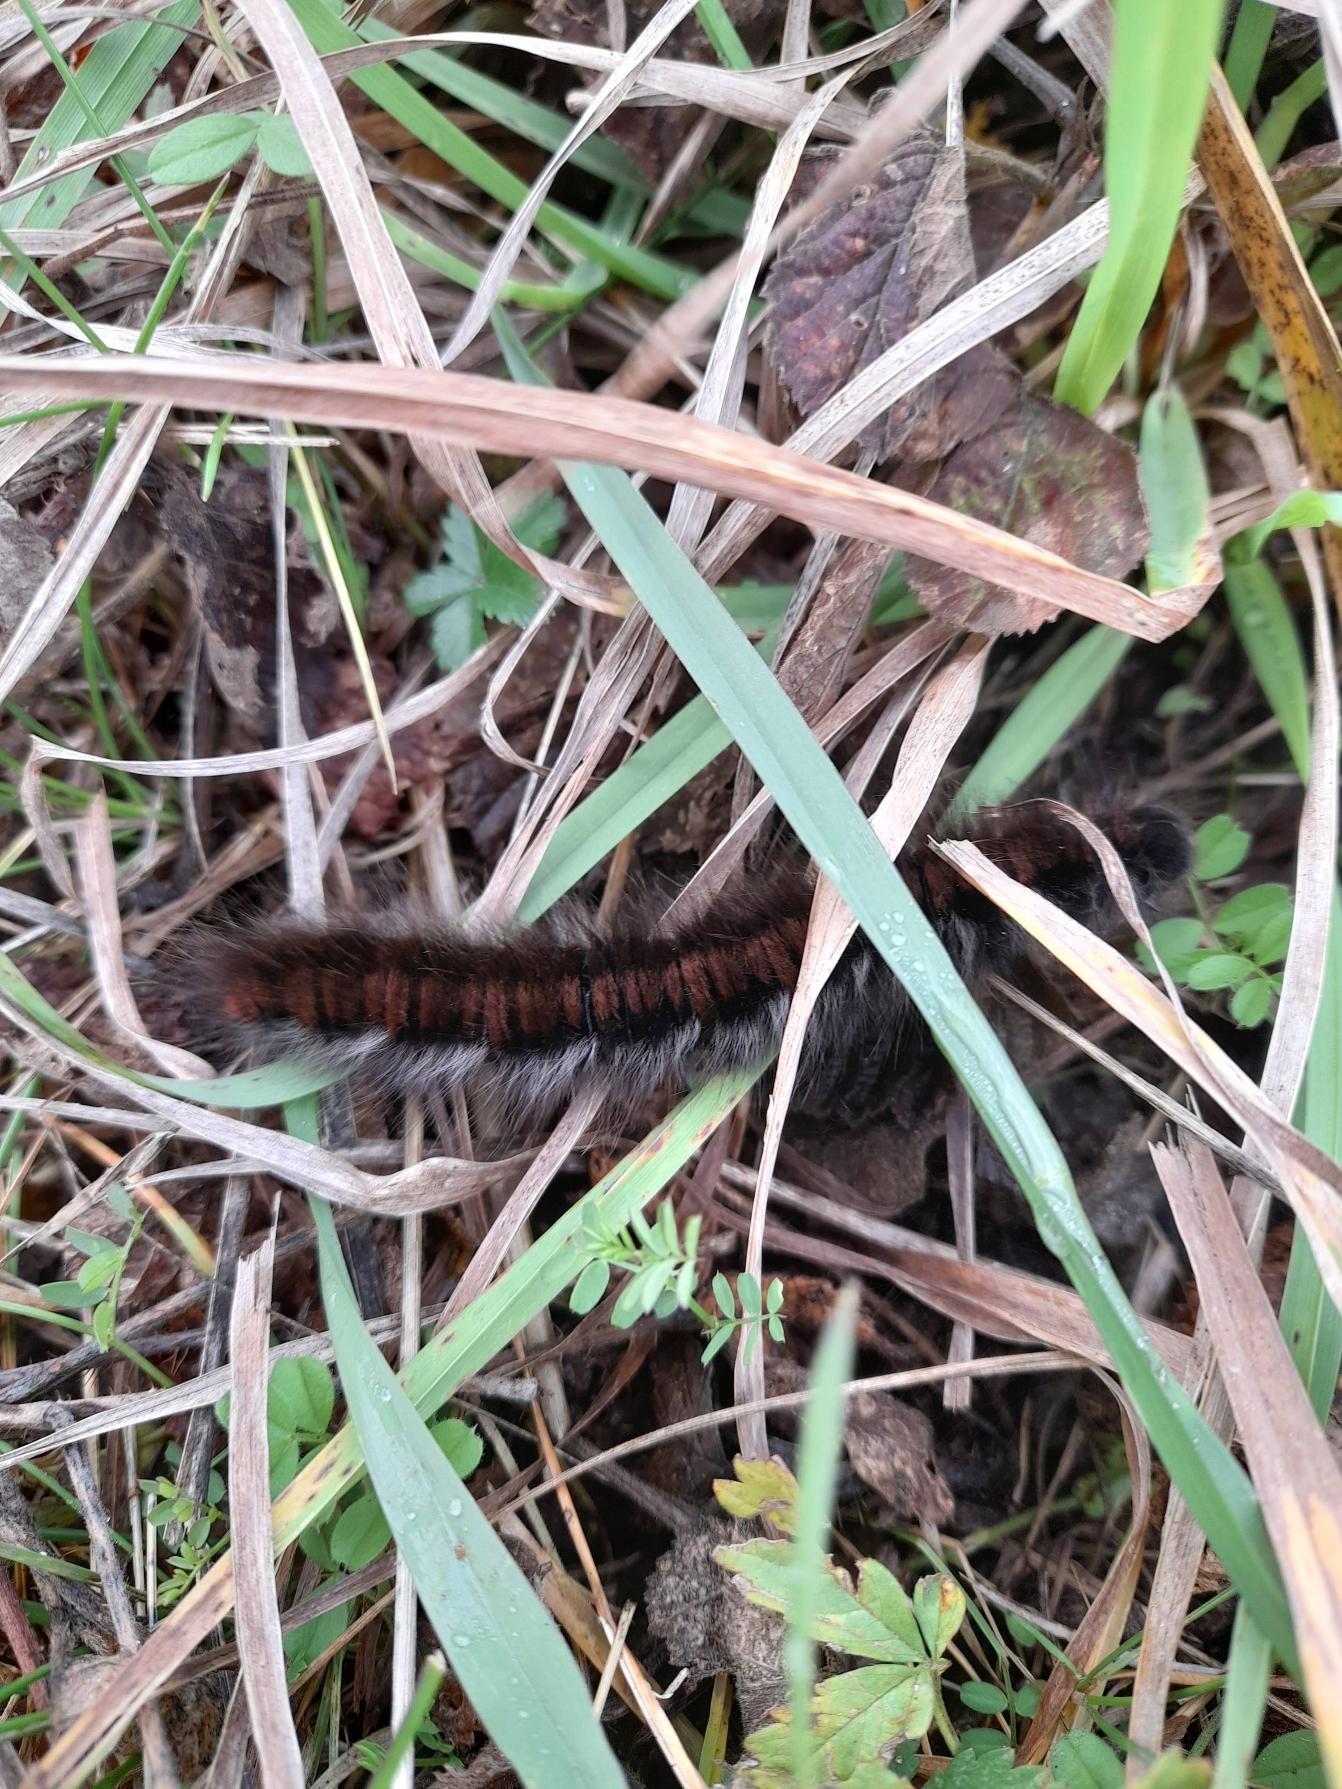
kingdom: Animalia
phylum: Arthropoda
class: Insecta
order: Lepidoptera
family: Lasiocampidae
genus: Macrothylacia
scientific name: Macrothylacia rubi
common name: Brombærspinder
